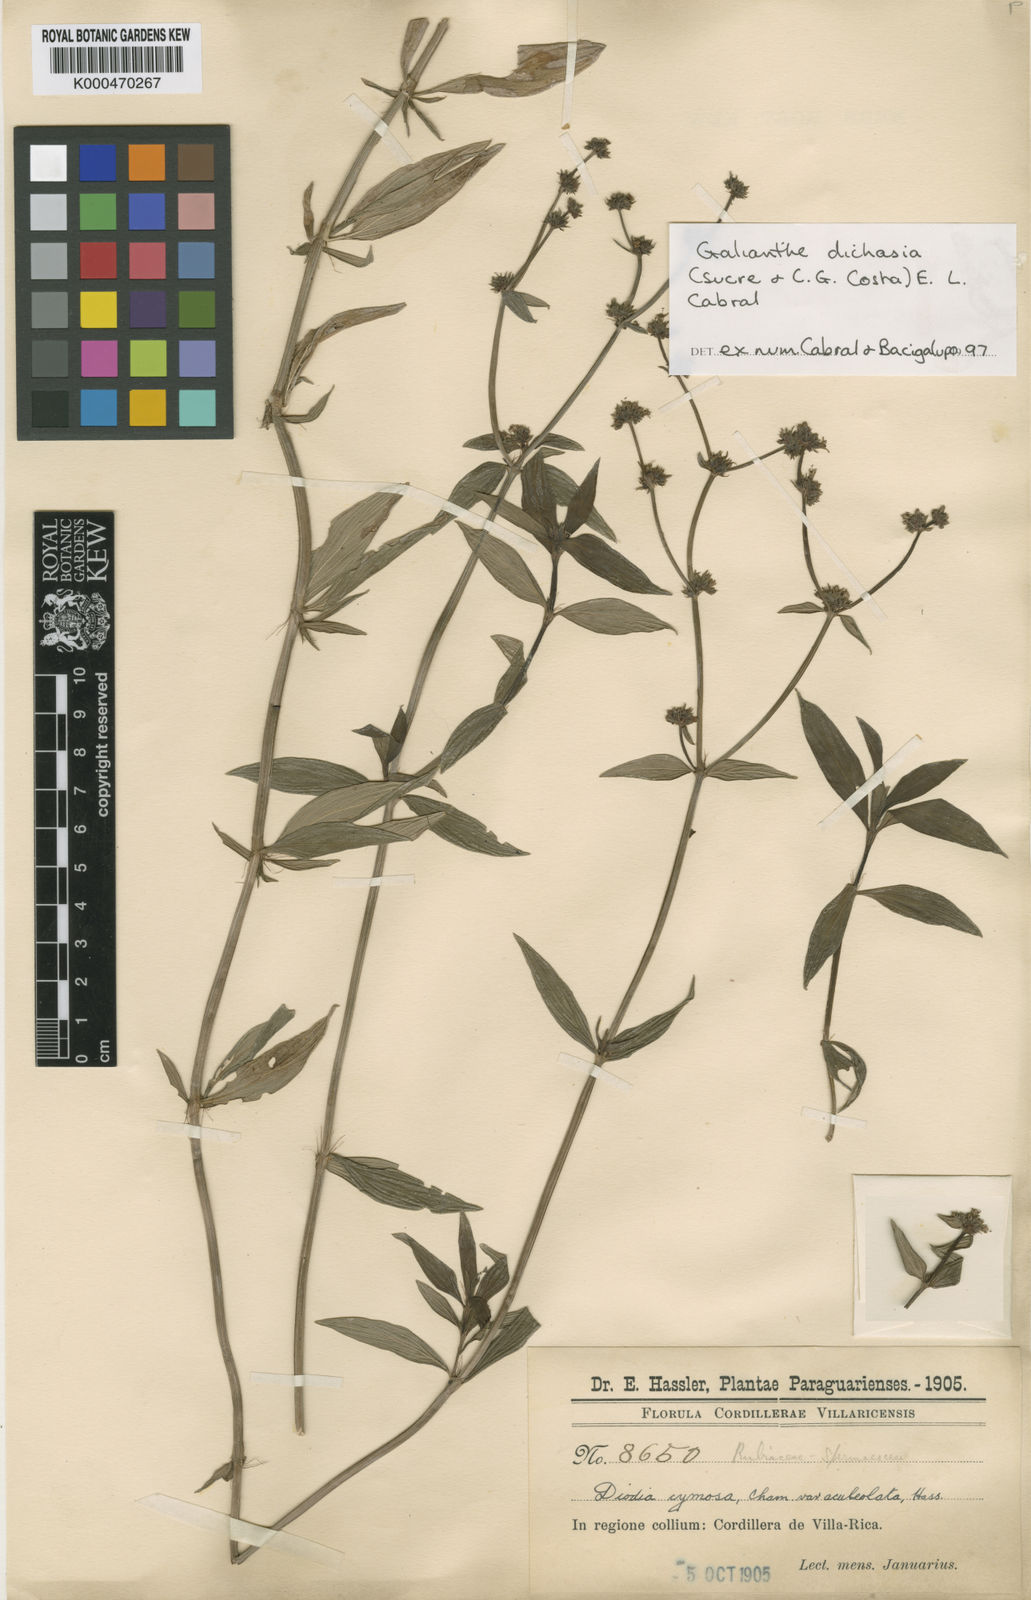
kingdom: Plantae
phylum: Tracheophyta
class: Magnoliopsida
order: Gentianales
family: Rubiaceae
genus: Galianthe
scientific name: Galianthe cymosa
